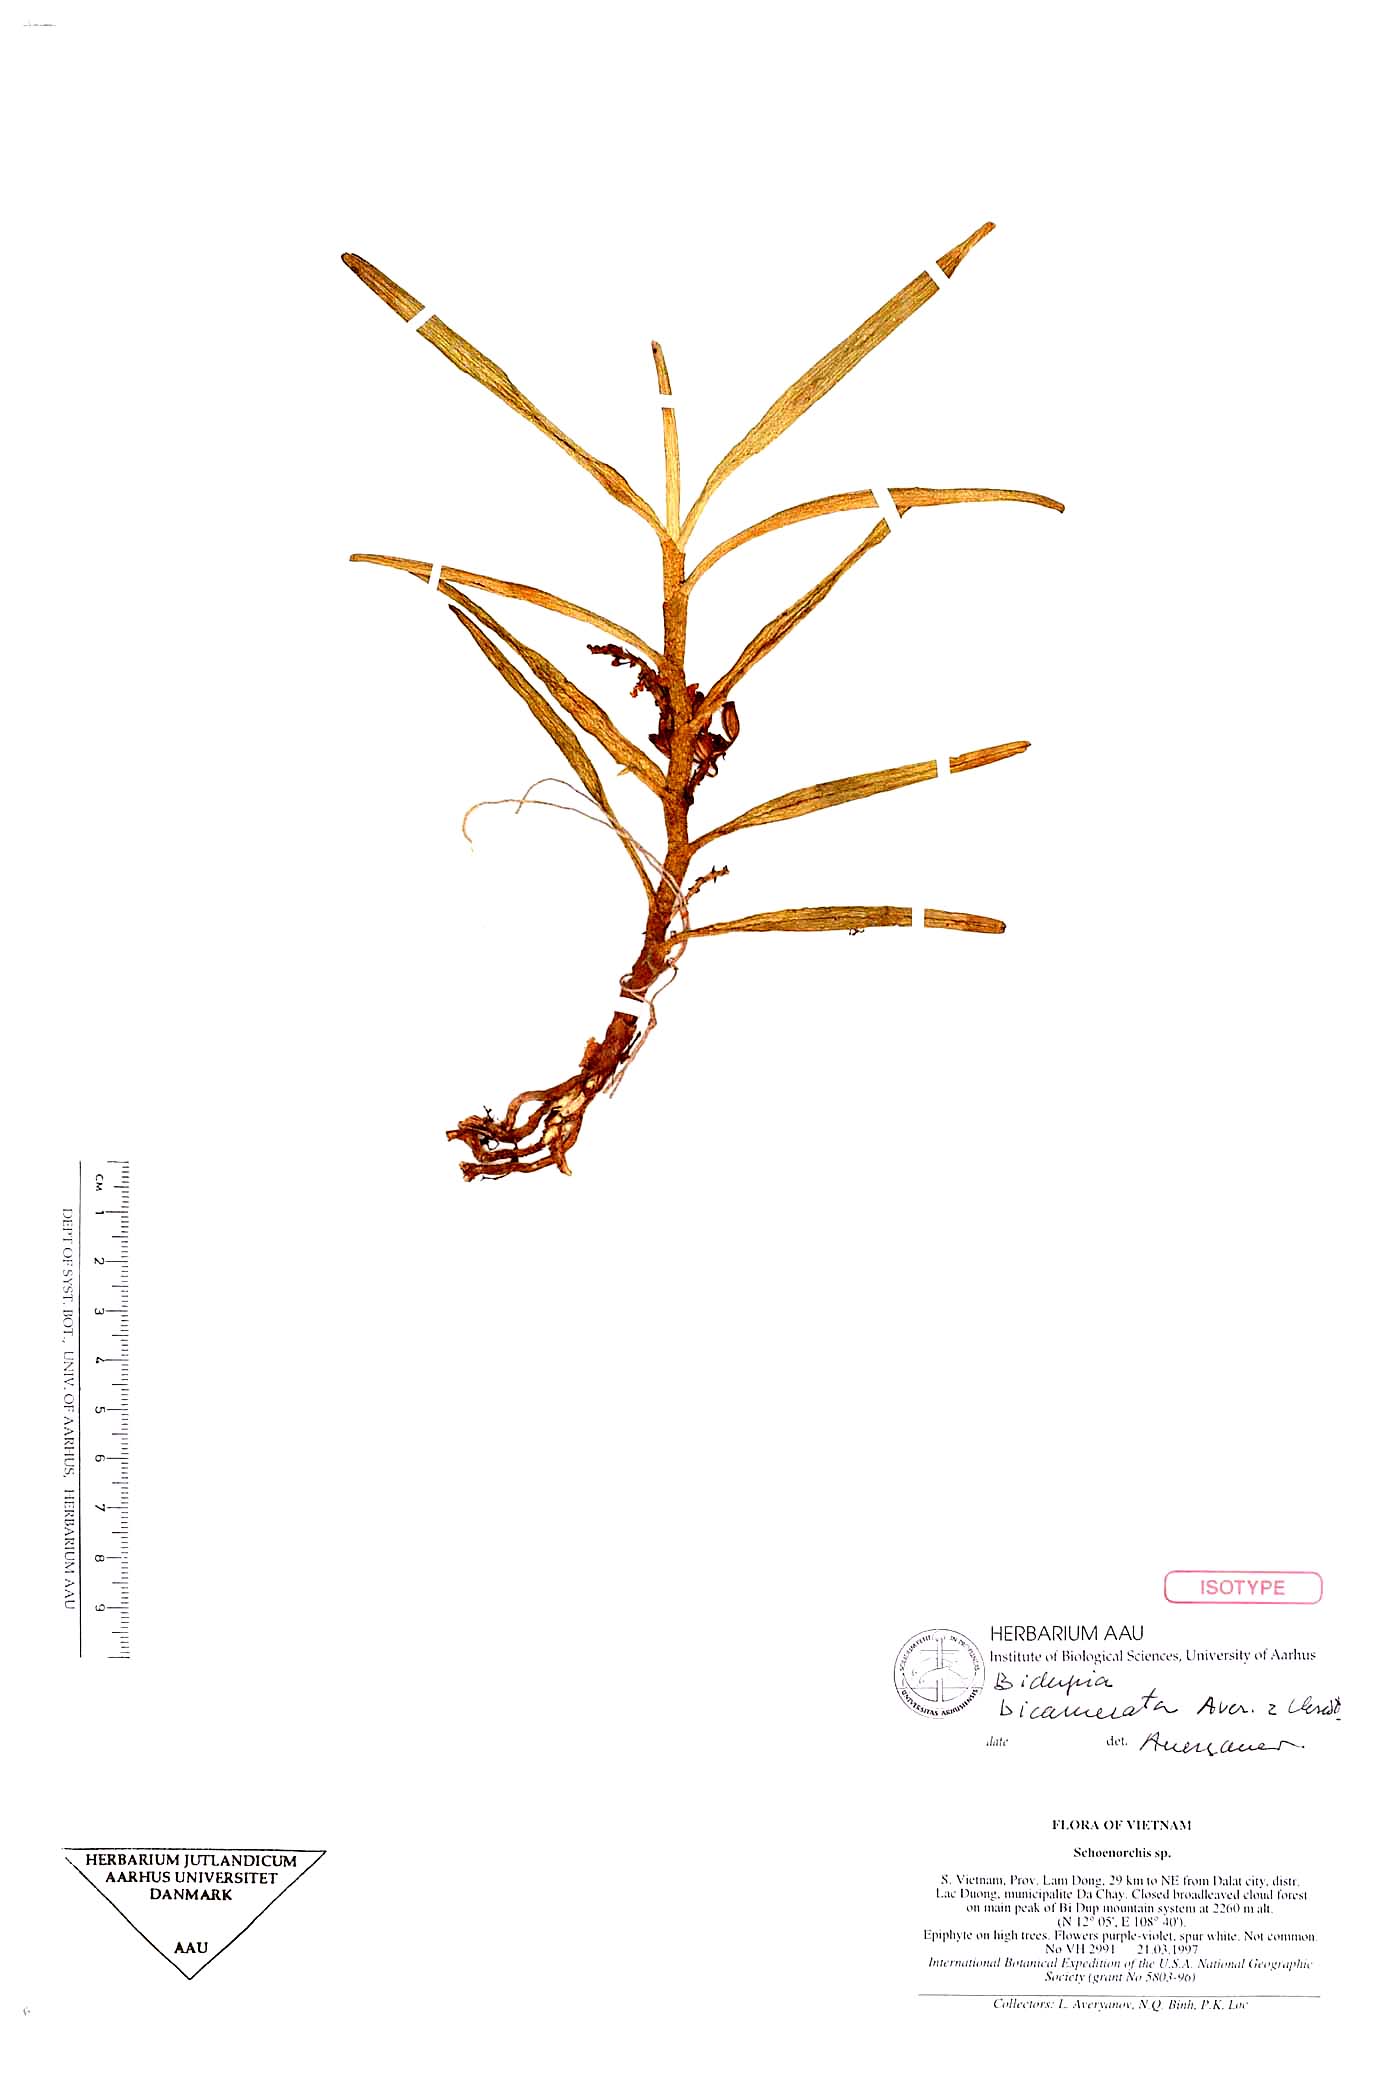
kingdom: Plantae
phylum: Tracheophyta
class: Liliopsida
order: Asparagales
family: Orchidaceae
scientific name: Orchidaceae
